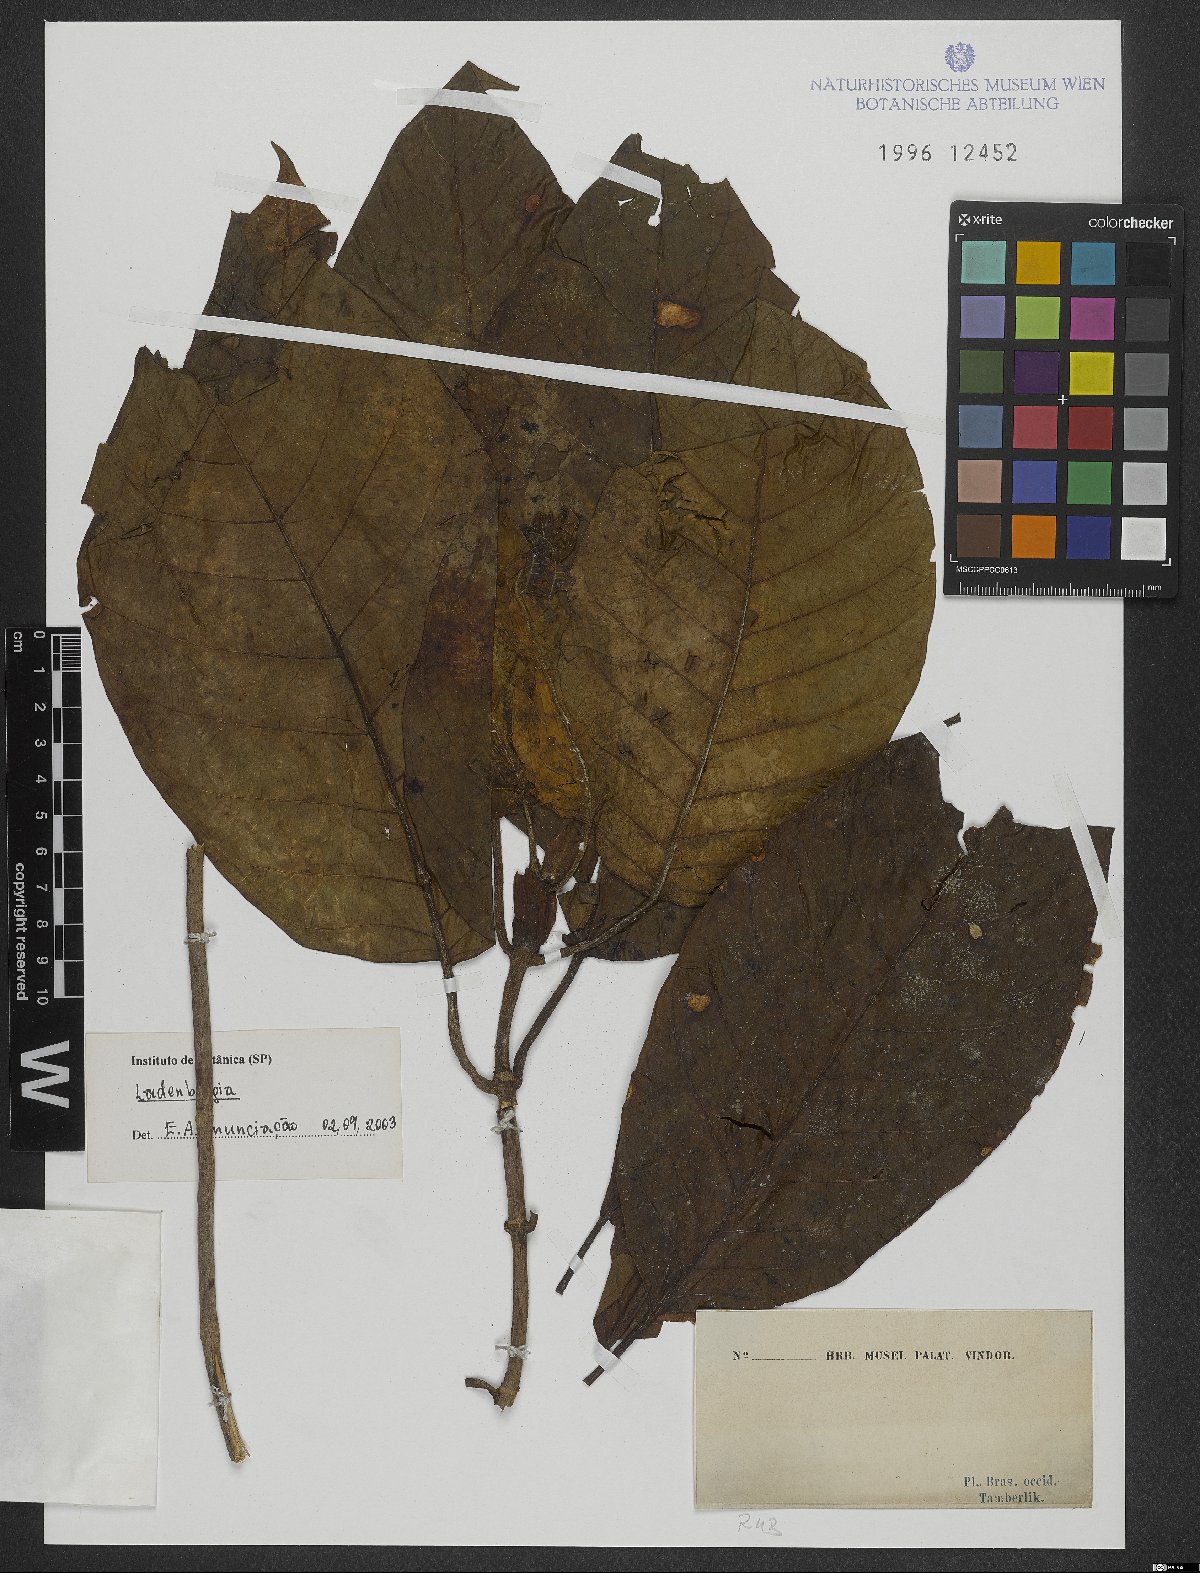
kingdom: Plantae
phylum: Tracheophyta
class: Magnoliopsida
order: Gentianales
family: Rubiaceae
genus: Ladenbergia
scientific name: Ladenbergia
